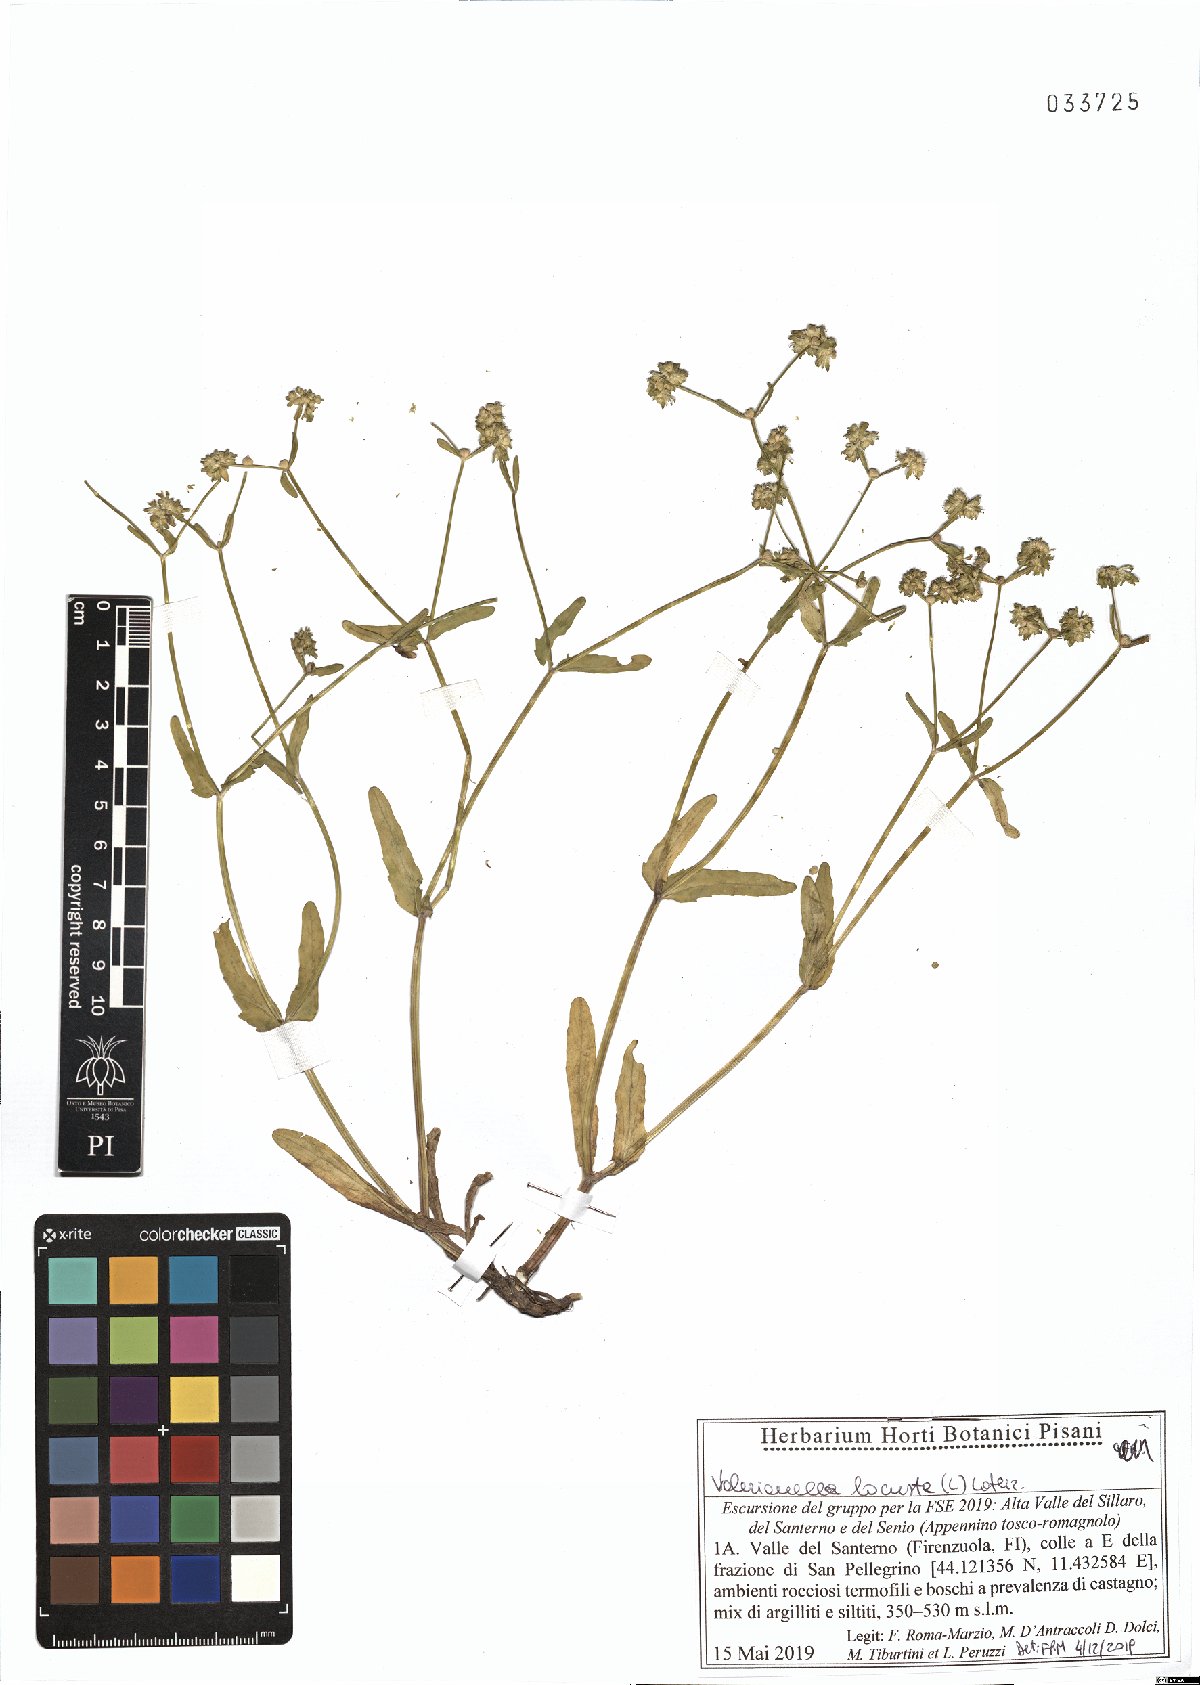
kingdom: Plantae
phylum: Tracheophyta
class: Magnoliopsida
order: Dipsacales
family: Caprifoliaceae
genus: Valerianella
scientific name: Valerianella locusta
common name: Common cornsalad
